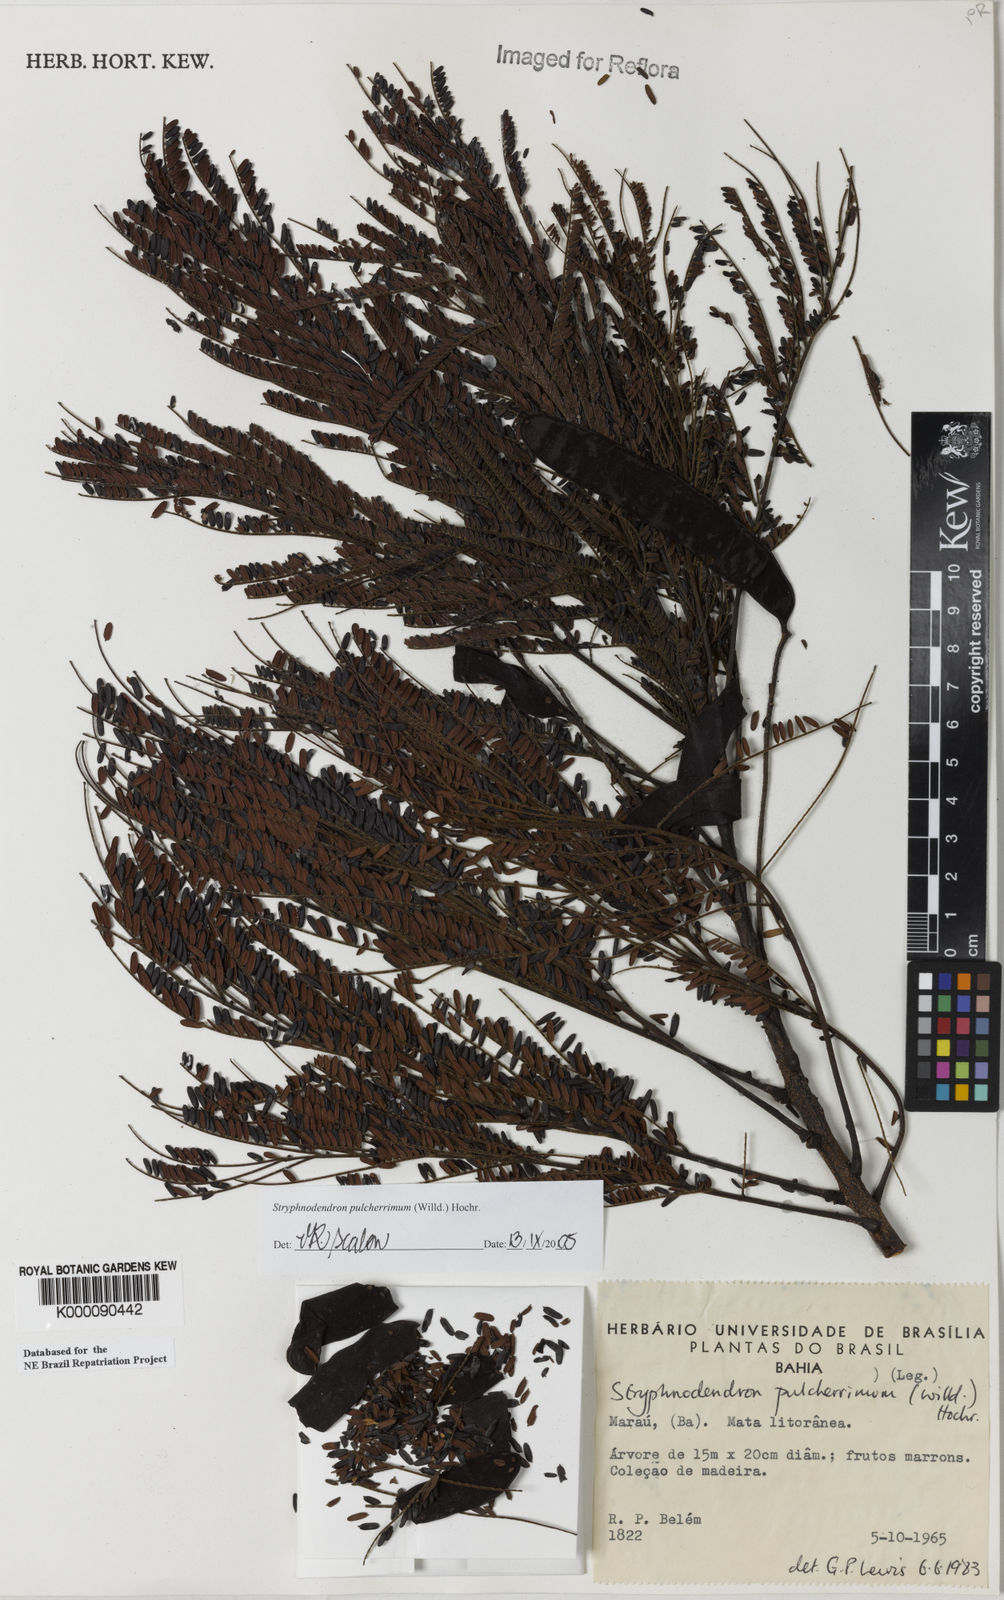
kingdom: Plantae
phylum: Tracheophyta
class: Magnoliopsida
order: Fabales
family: Fabaceae
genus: Stryphnodendron
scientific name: Stryphnodendron pulcherrimum
